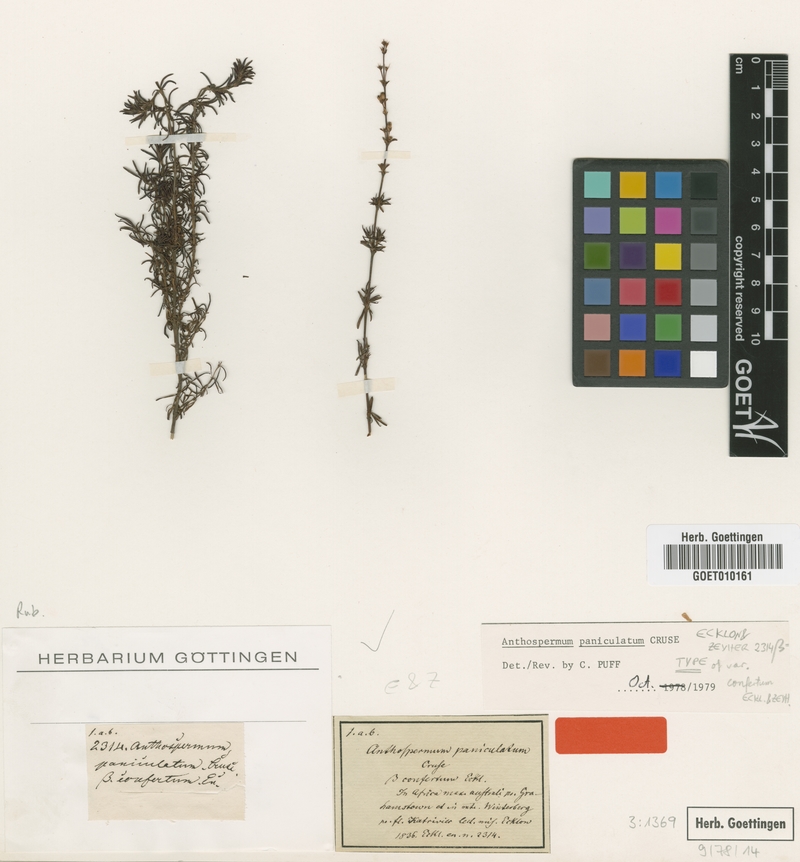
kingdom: Plantae
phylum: Tracheophyta
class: Magnoliopsida
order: Gentianales
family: Rubiaceae
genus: Anthospermum
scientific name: Anthospermum paniculatum
